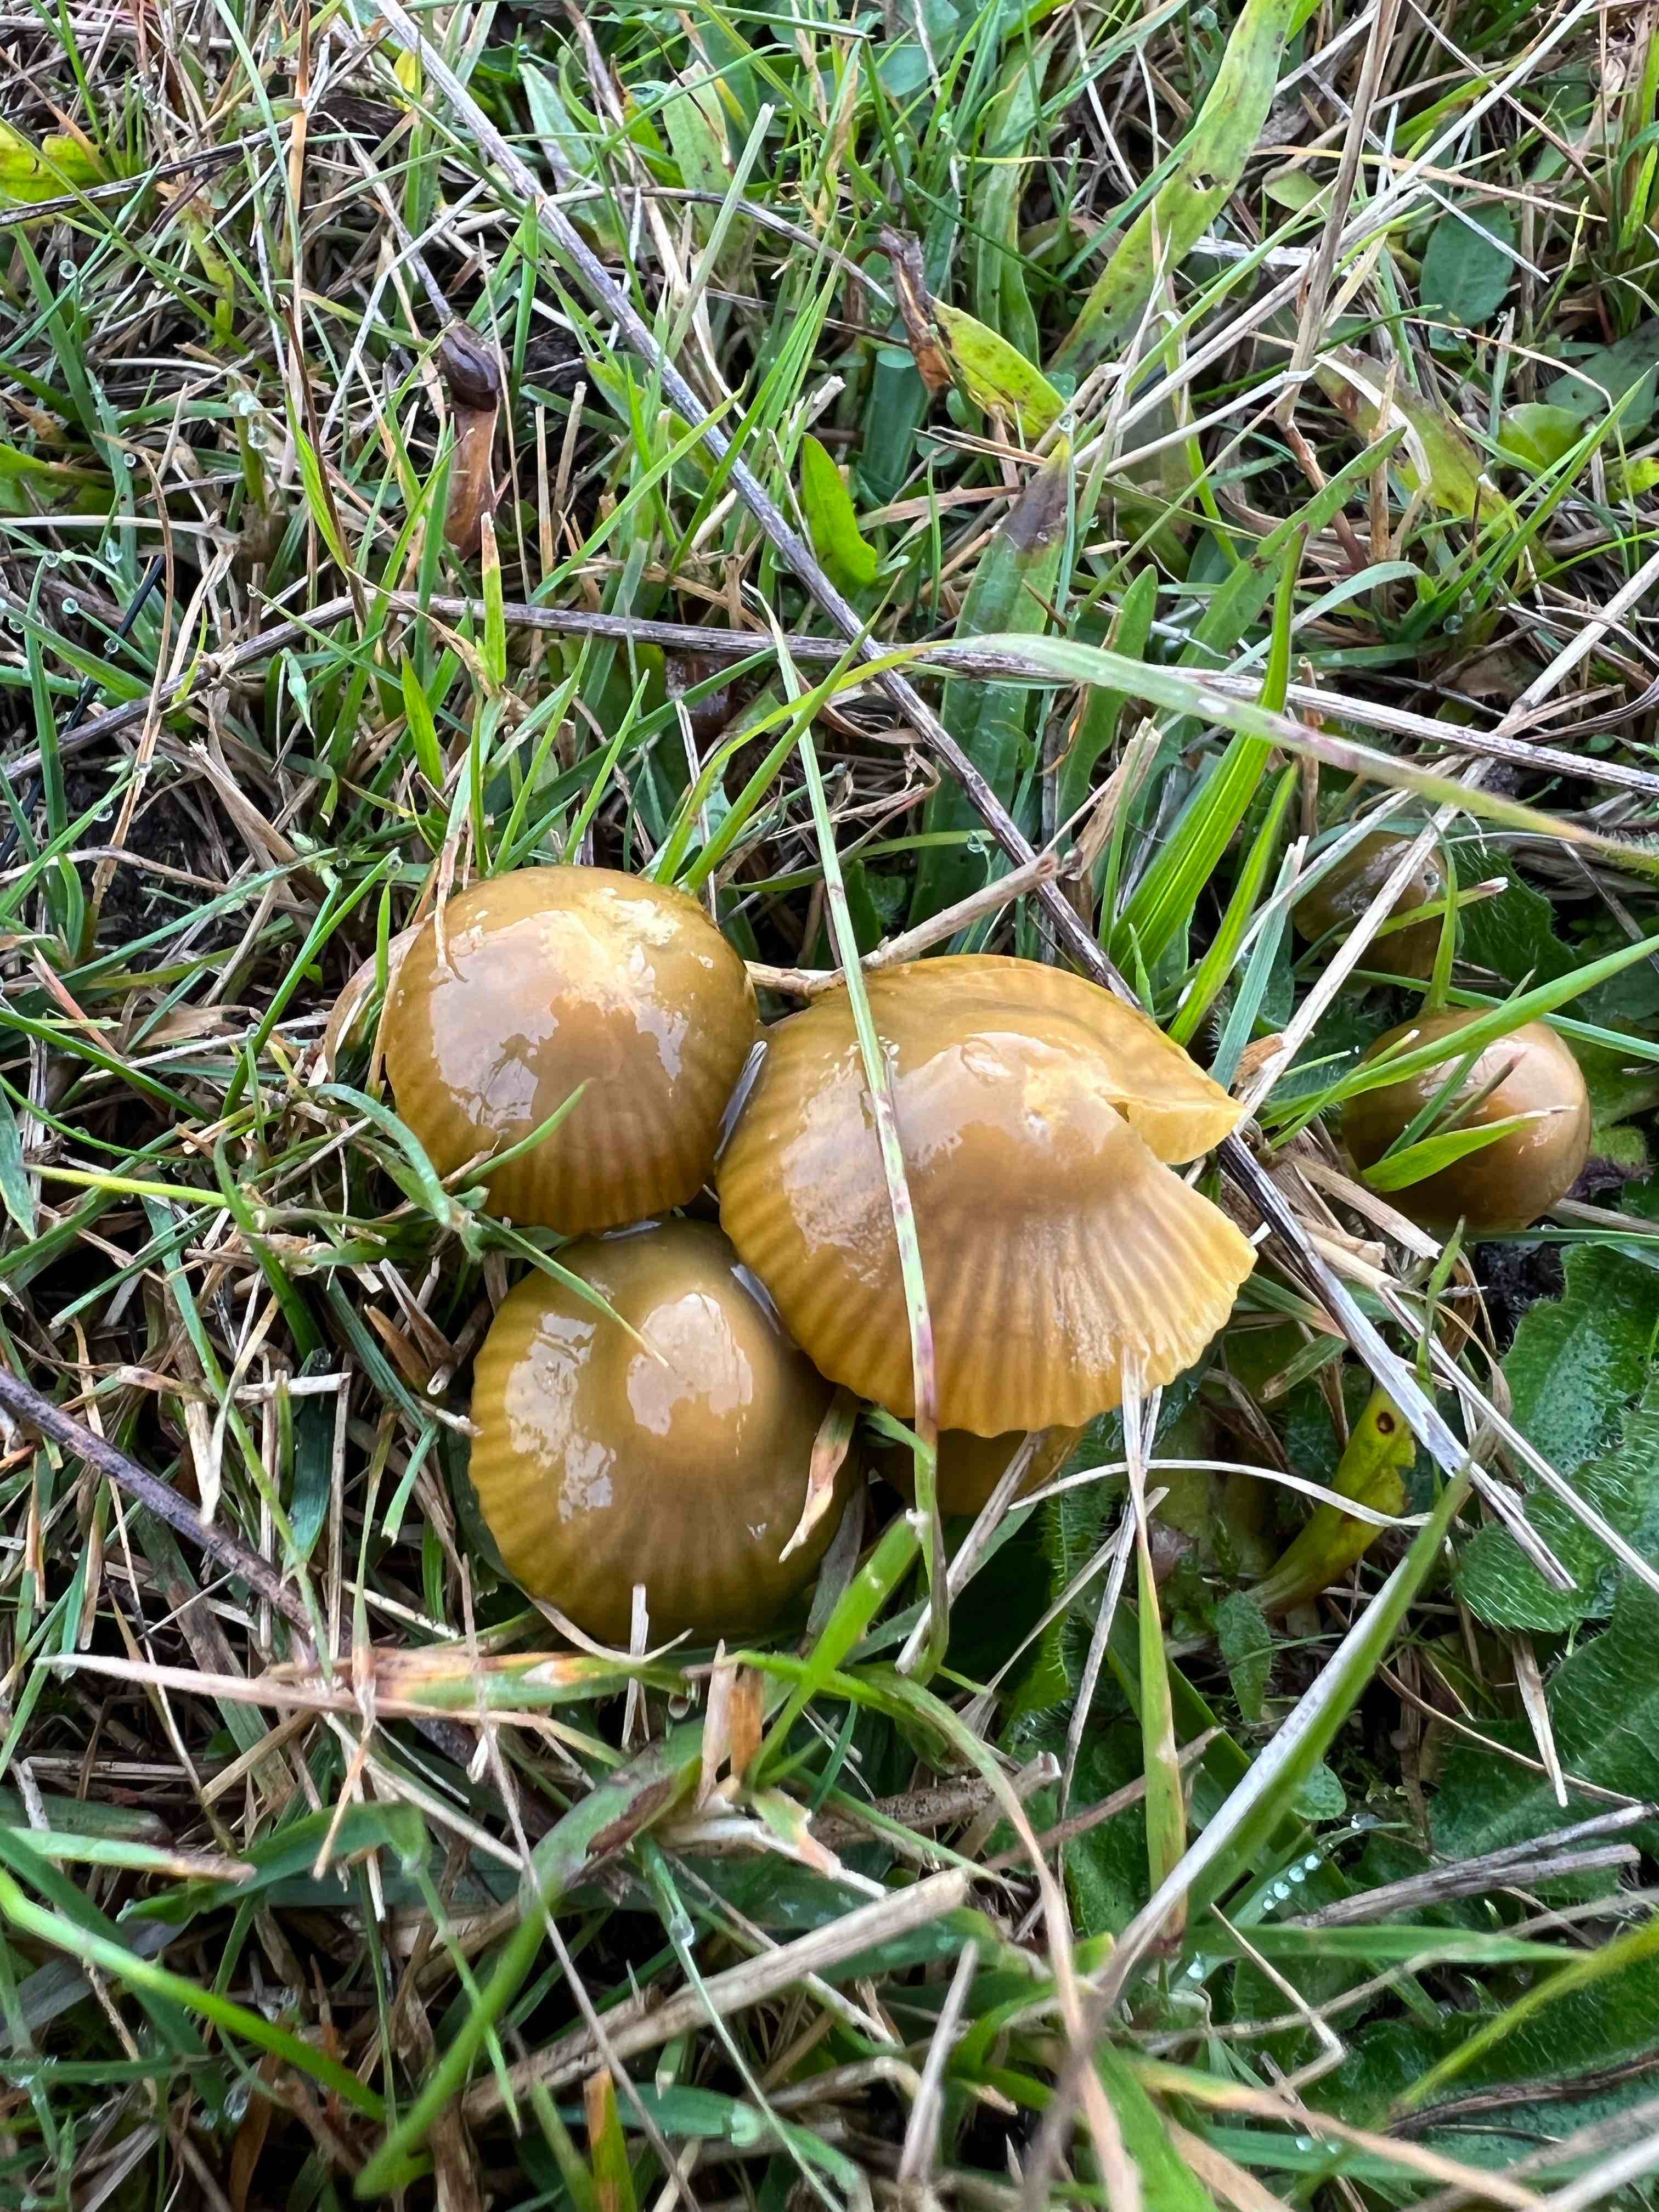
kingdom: Fungi
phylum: Basidiomycota
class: Agaricomycetes
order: Agaricales
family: Hygrophoraceae
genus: Gliophorus
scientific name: Gliophorus psittacinus
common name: papegøje-vokshat
